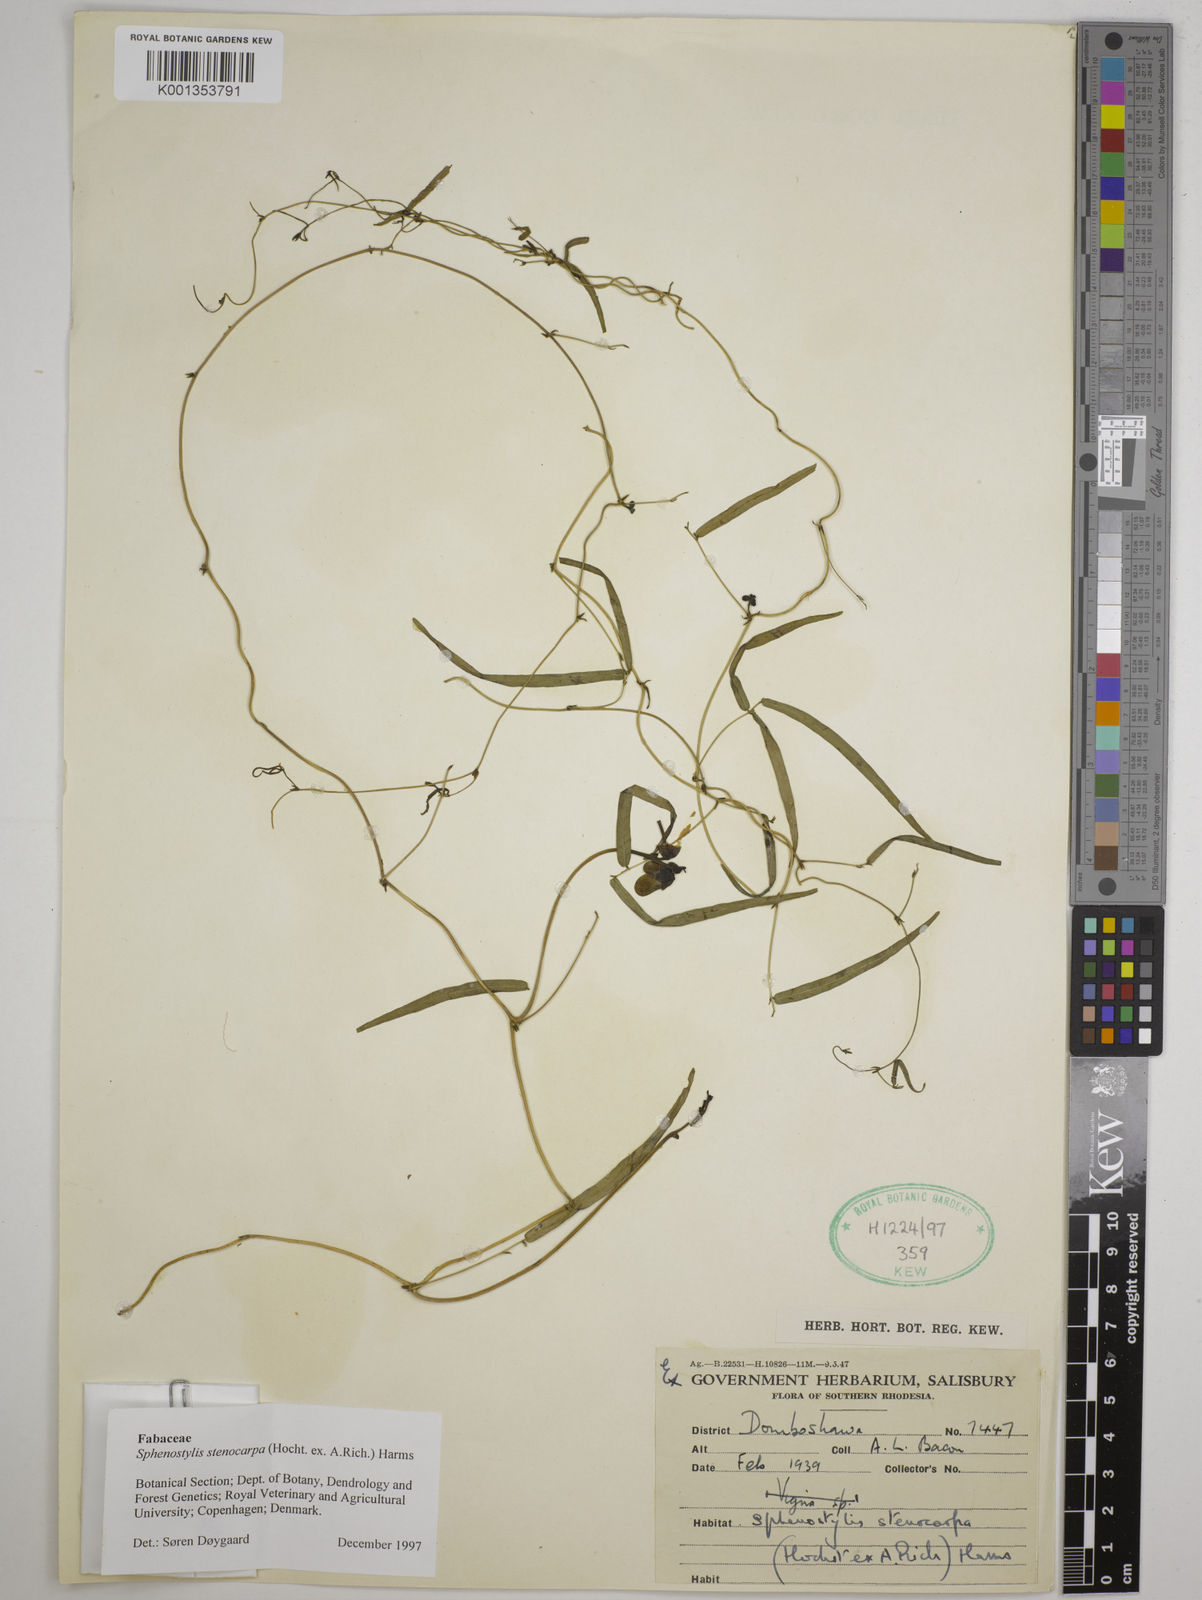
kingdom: Plantae
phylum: Tracheophyta
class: Magnoliopsida
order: Fabales
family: Fabaceae
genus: Sphenostylis
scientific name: Sphenostylis stenocarpa
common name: Yam-pea
